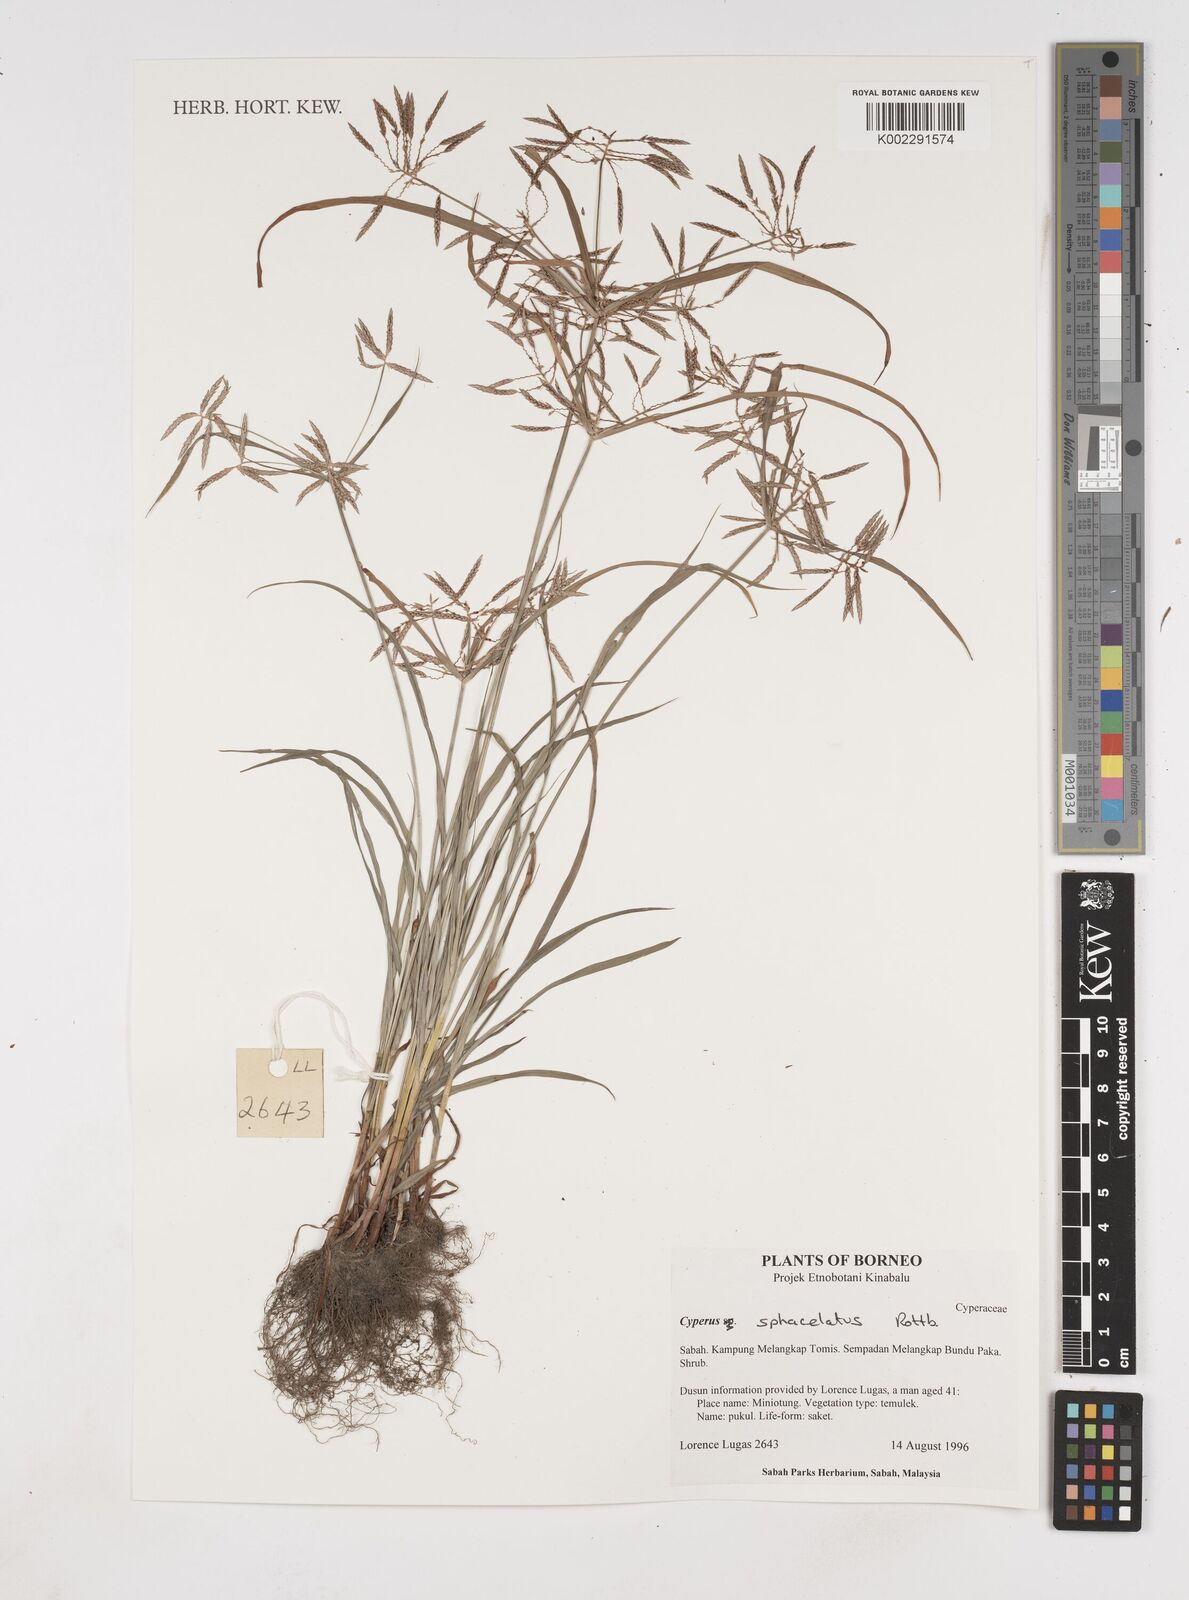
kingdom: Plantae
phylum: Tracheophyta
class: Liliopsida
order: Poales
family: Cyperaceae
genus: Cyperus
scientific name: Cyperus sphacelatus
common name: Roadside flatsedge
